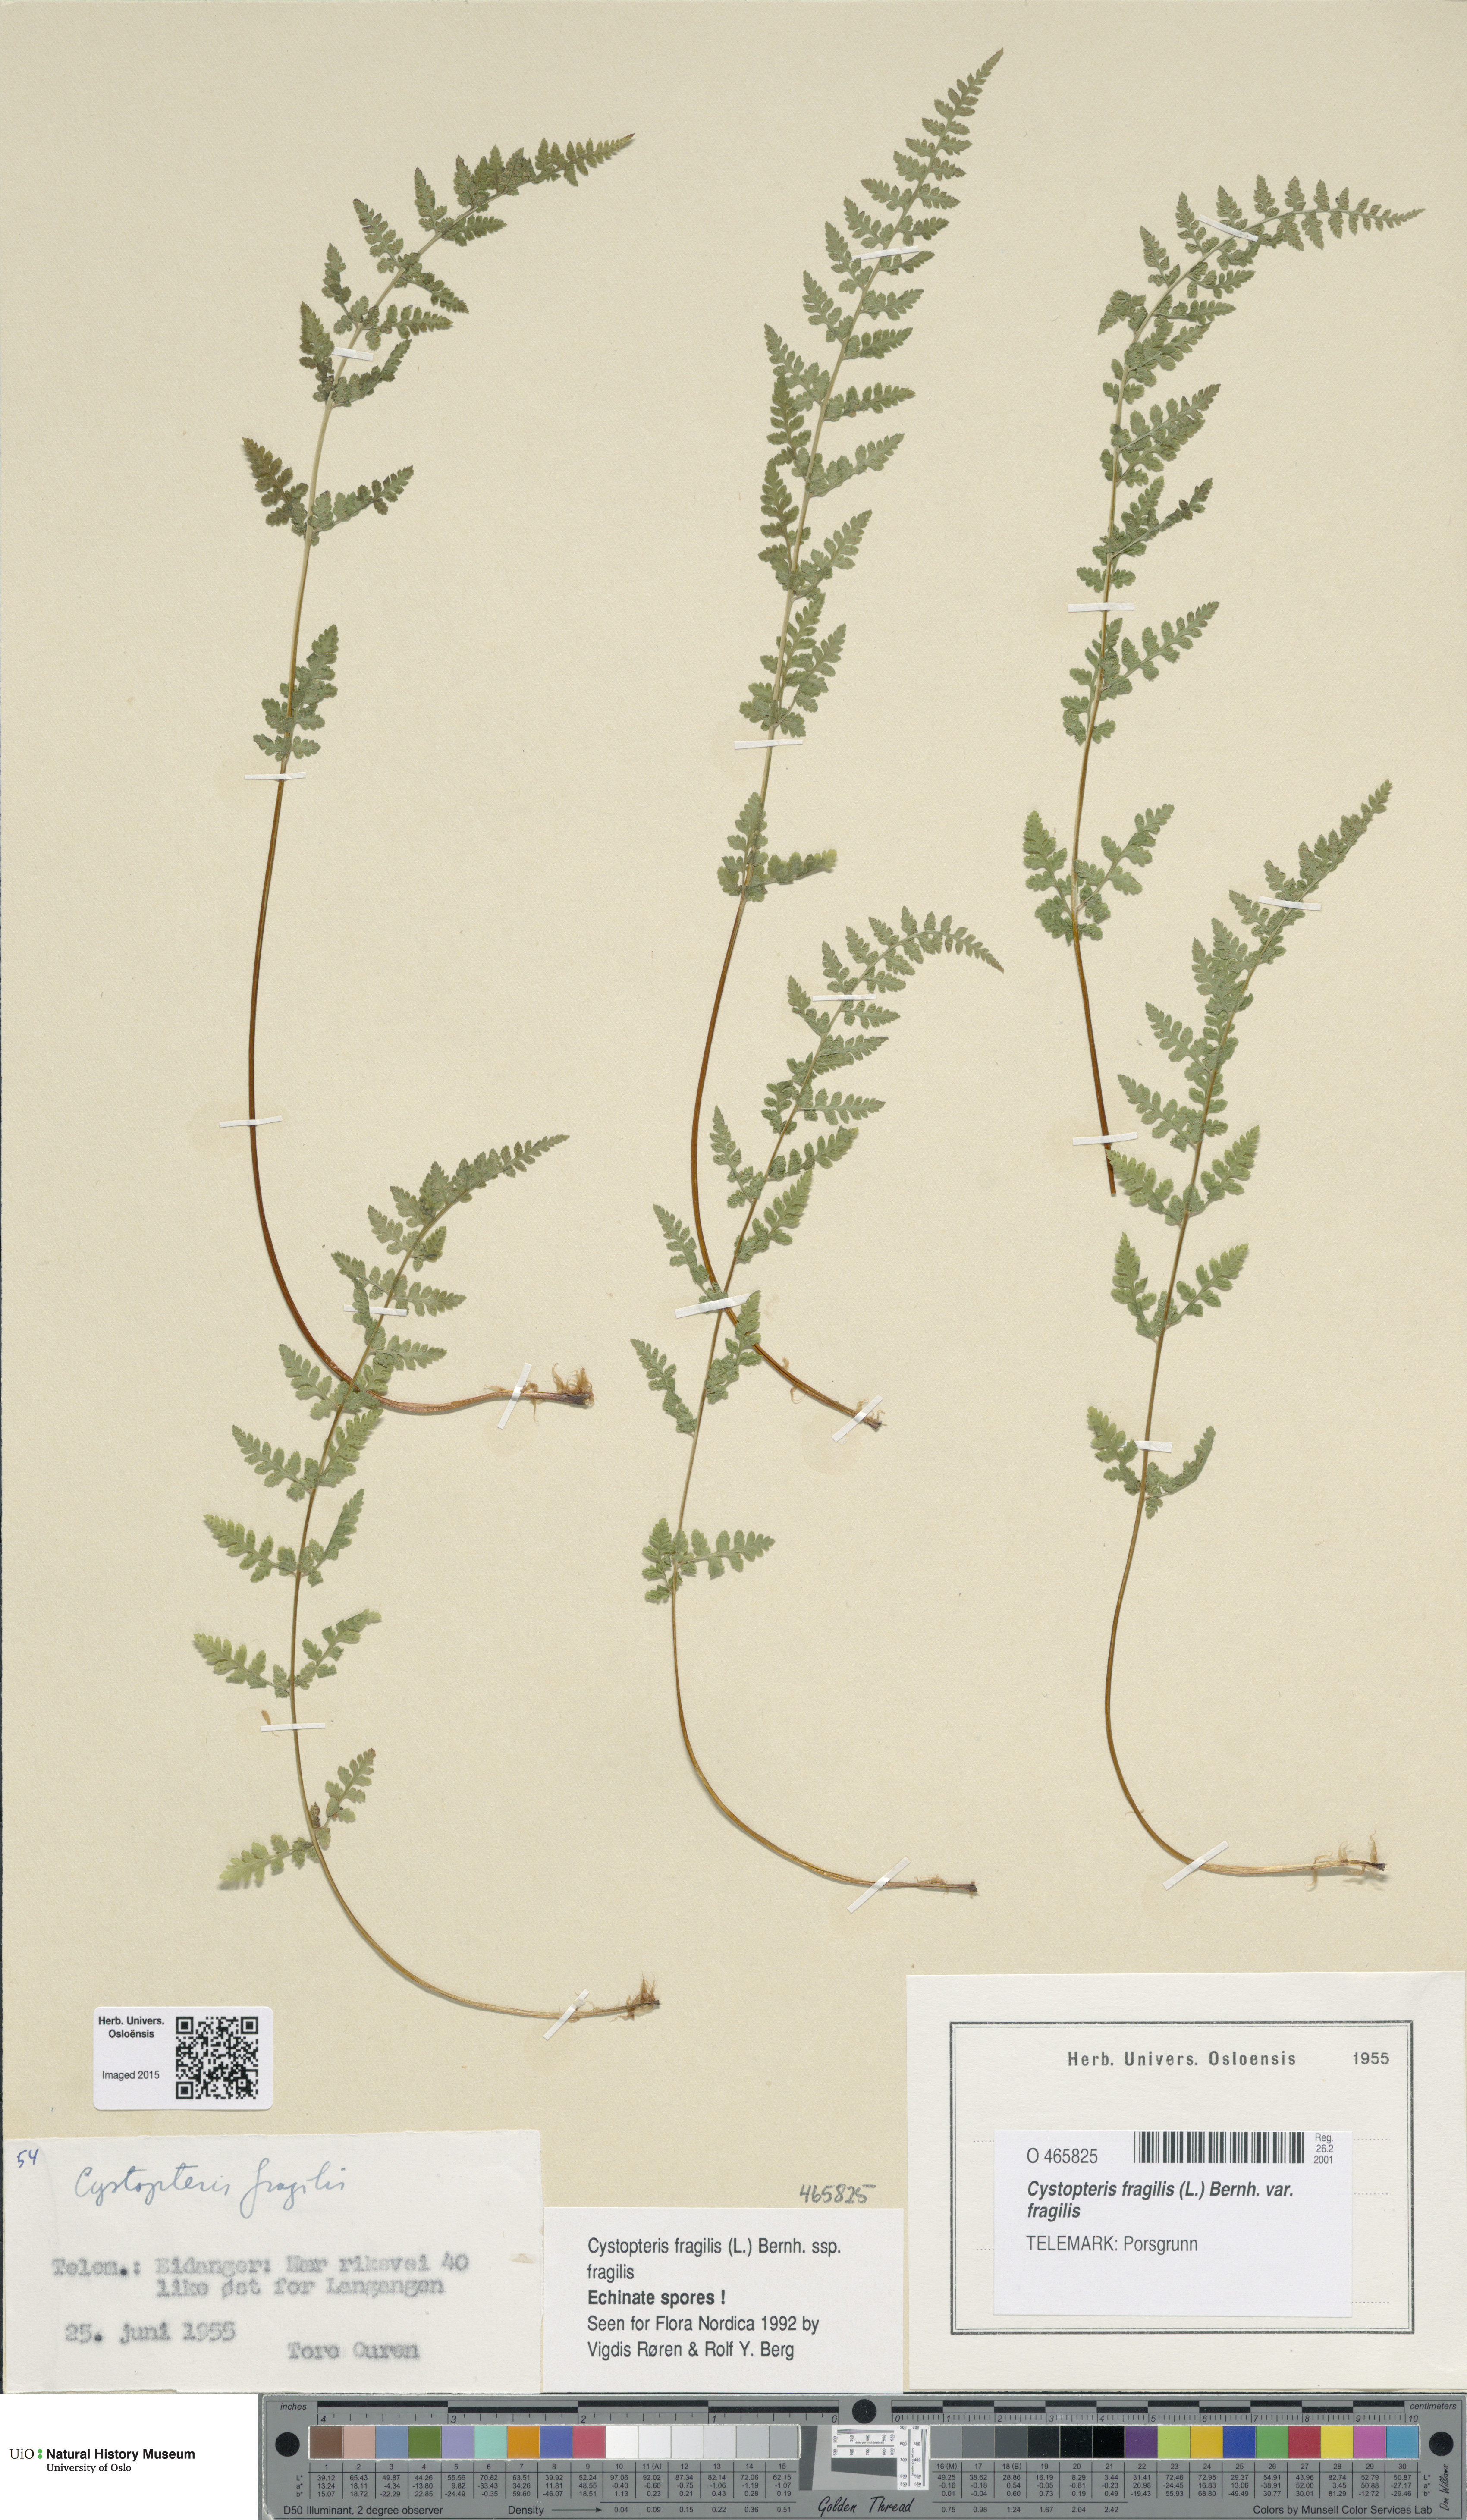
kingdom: Plantae
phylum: Tracheophyta
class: Polypodiopsida
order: Polypodiales
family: Cystopteridaceae
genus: Cystopteris
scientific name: Cystopteris fragilis
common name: Brittle bladder fern
